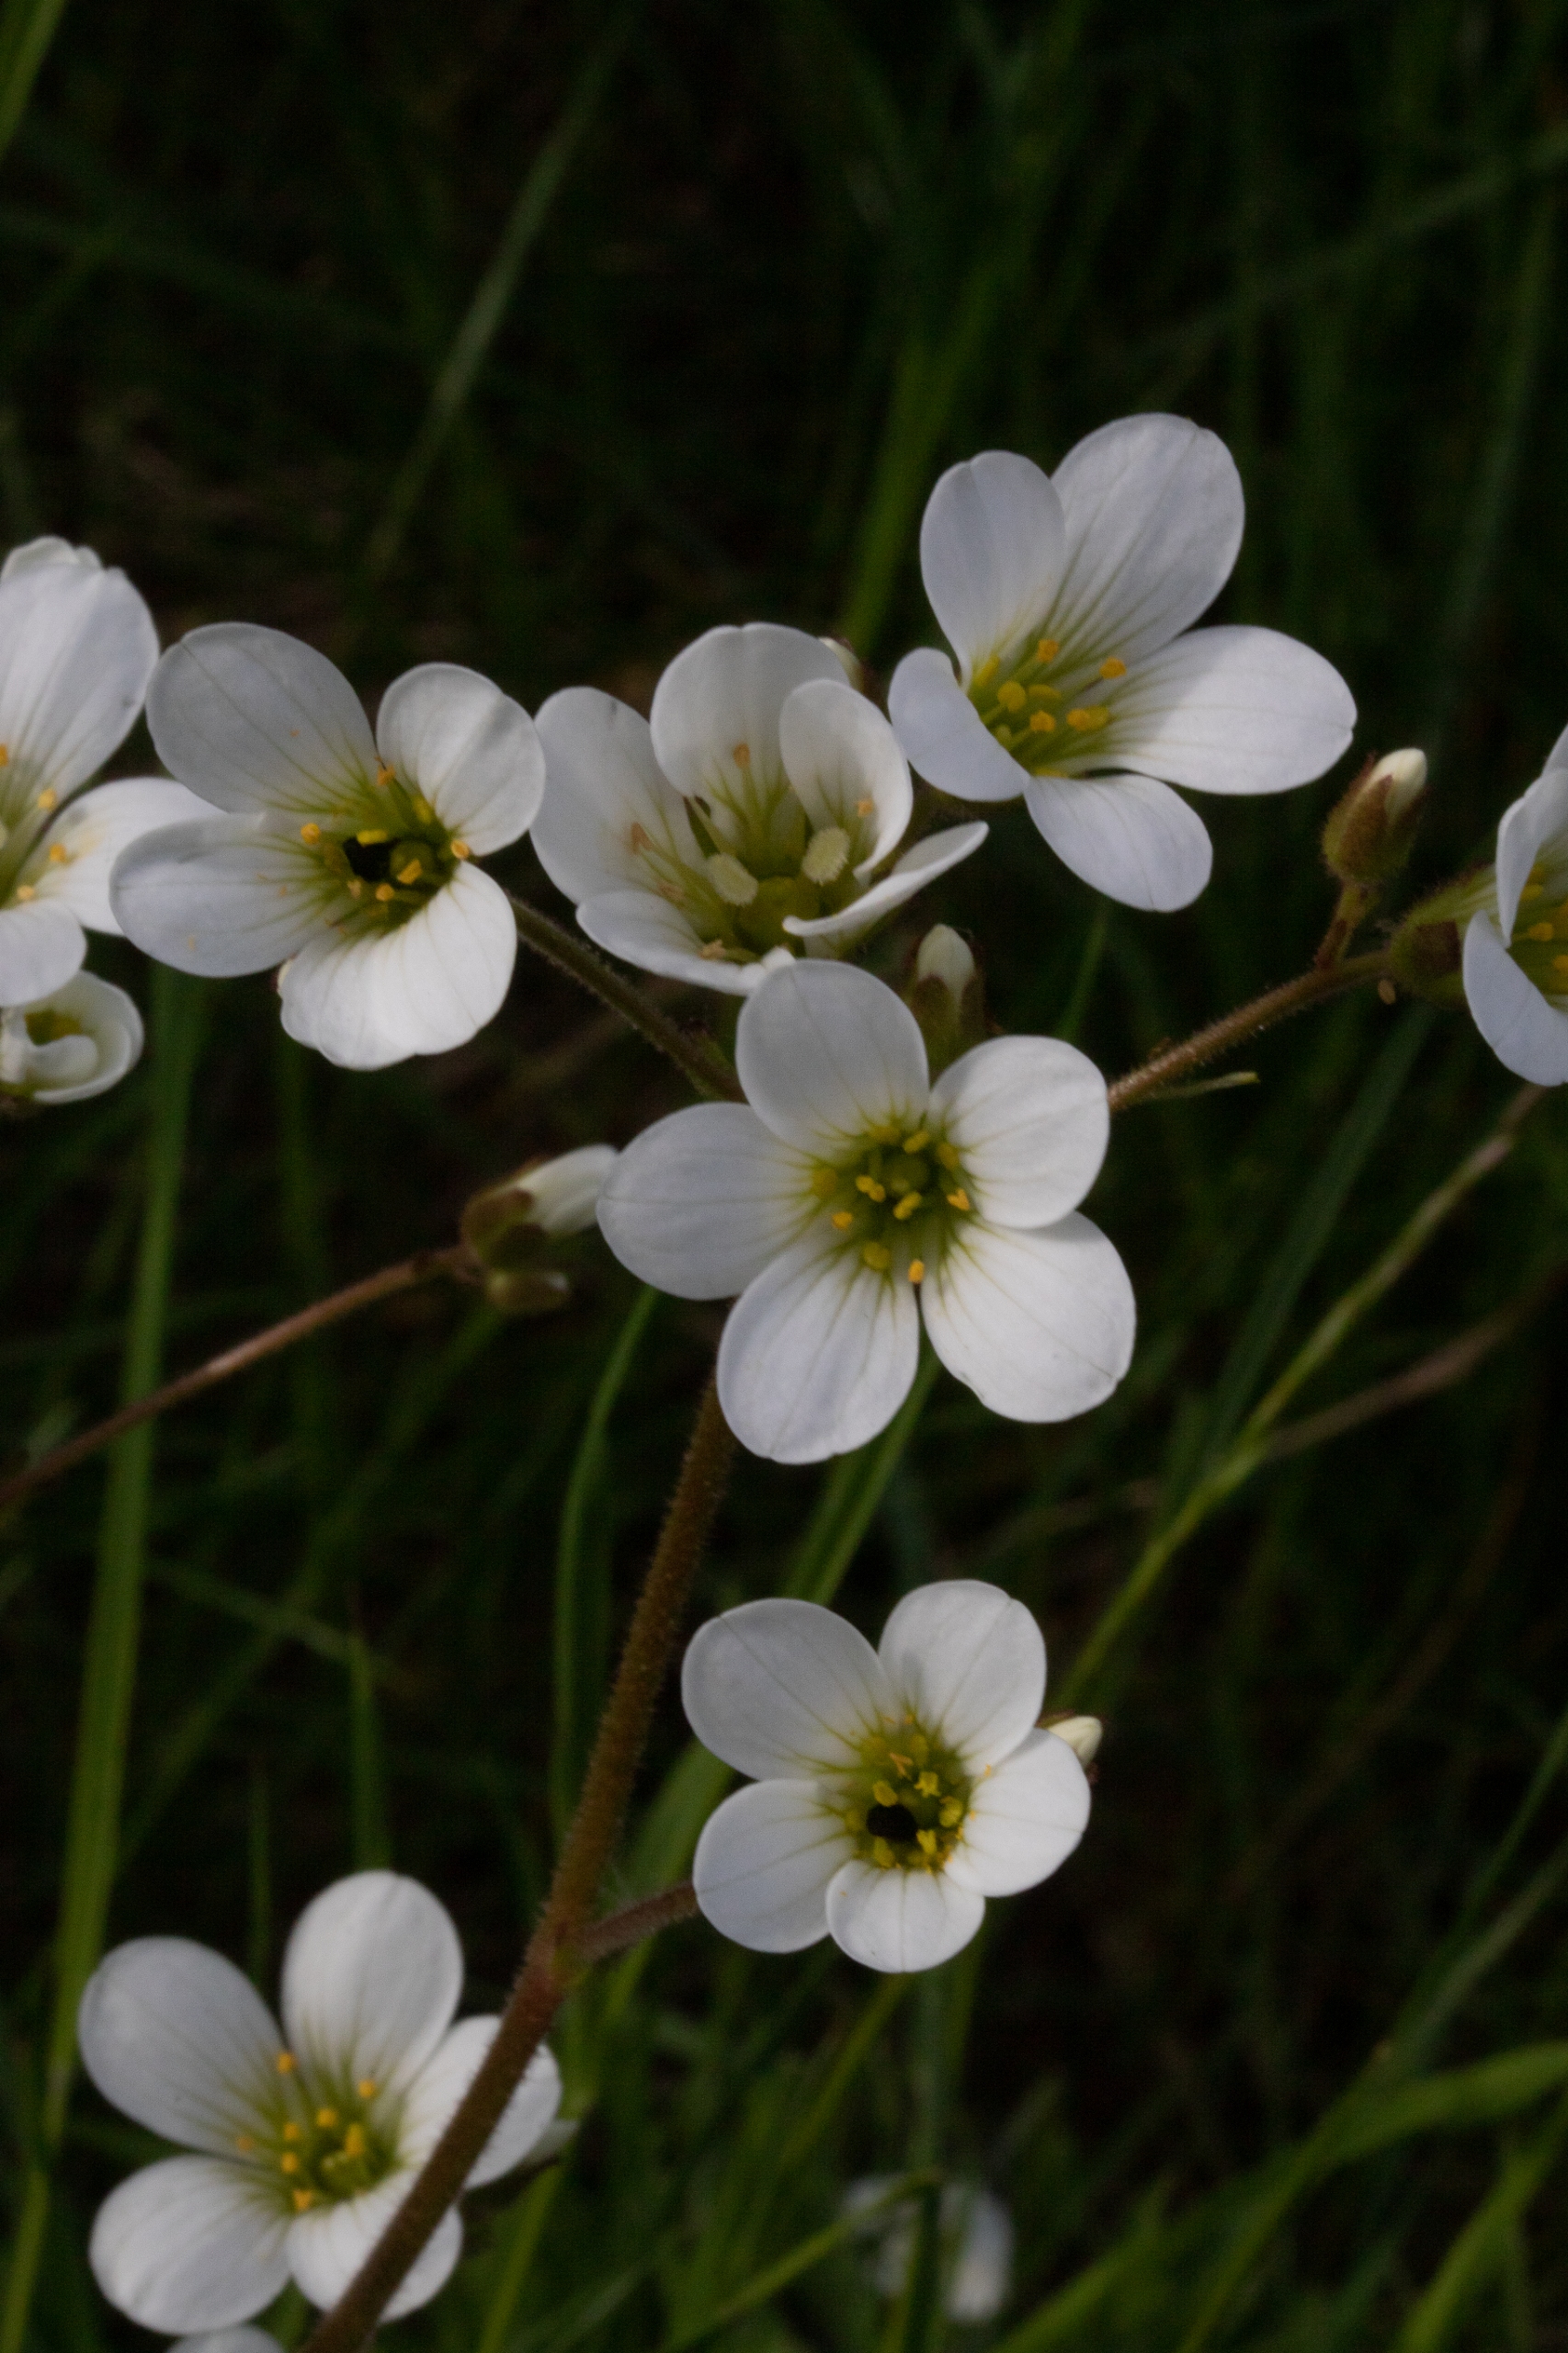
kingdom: Plantae
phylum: Tracheophyta
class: Magnoliopsida
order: Saxifragales
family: Saxifragaceae
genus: Saxifraga
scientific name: Saxifraga granulata
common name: Kornet stenbræk
